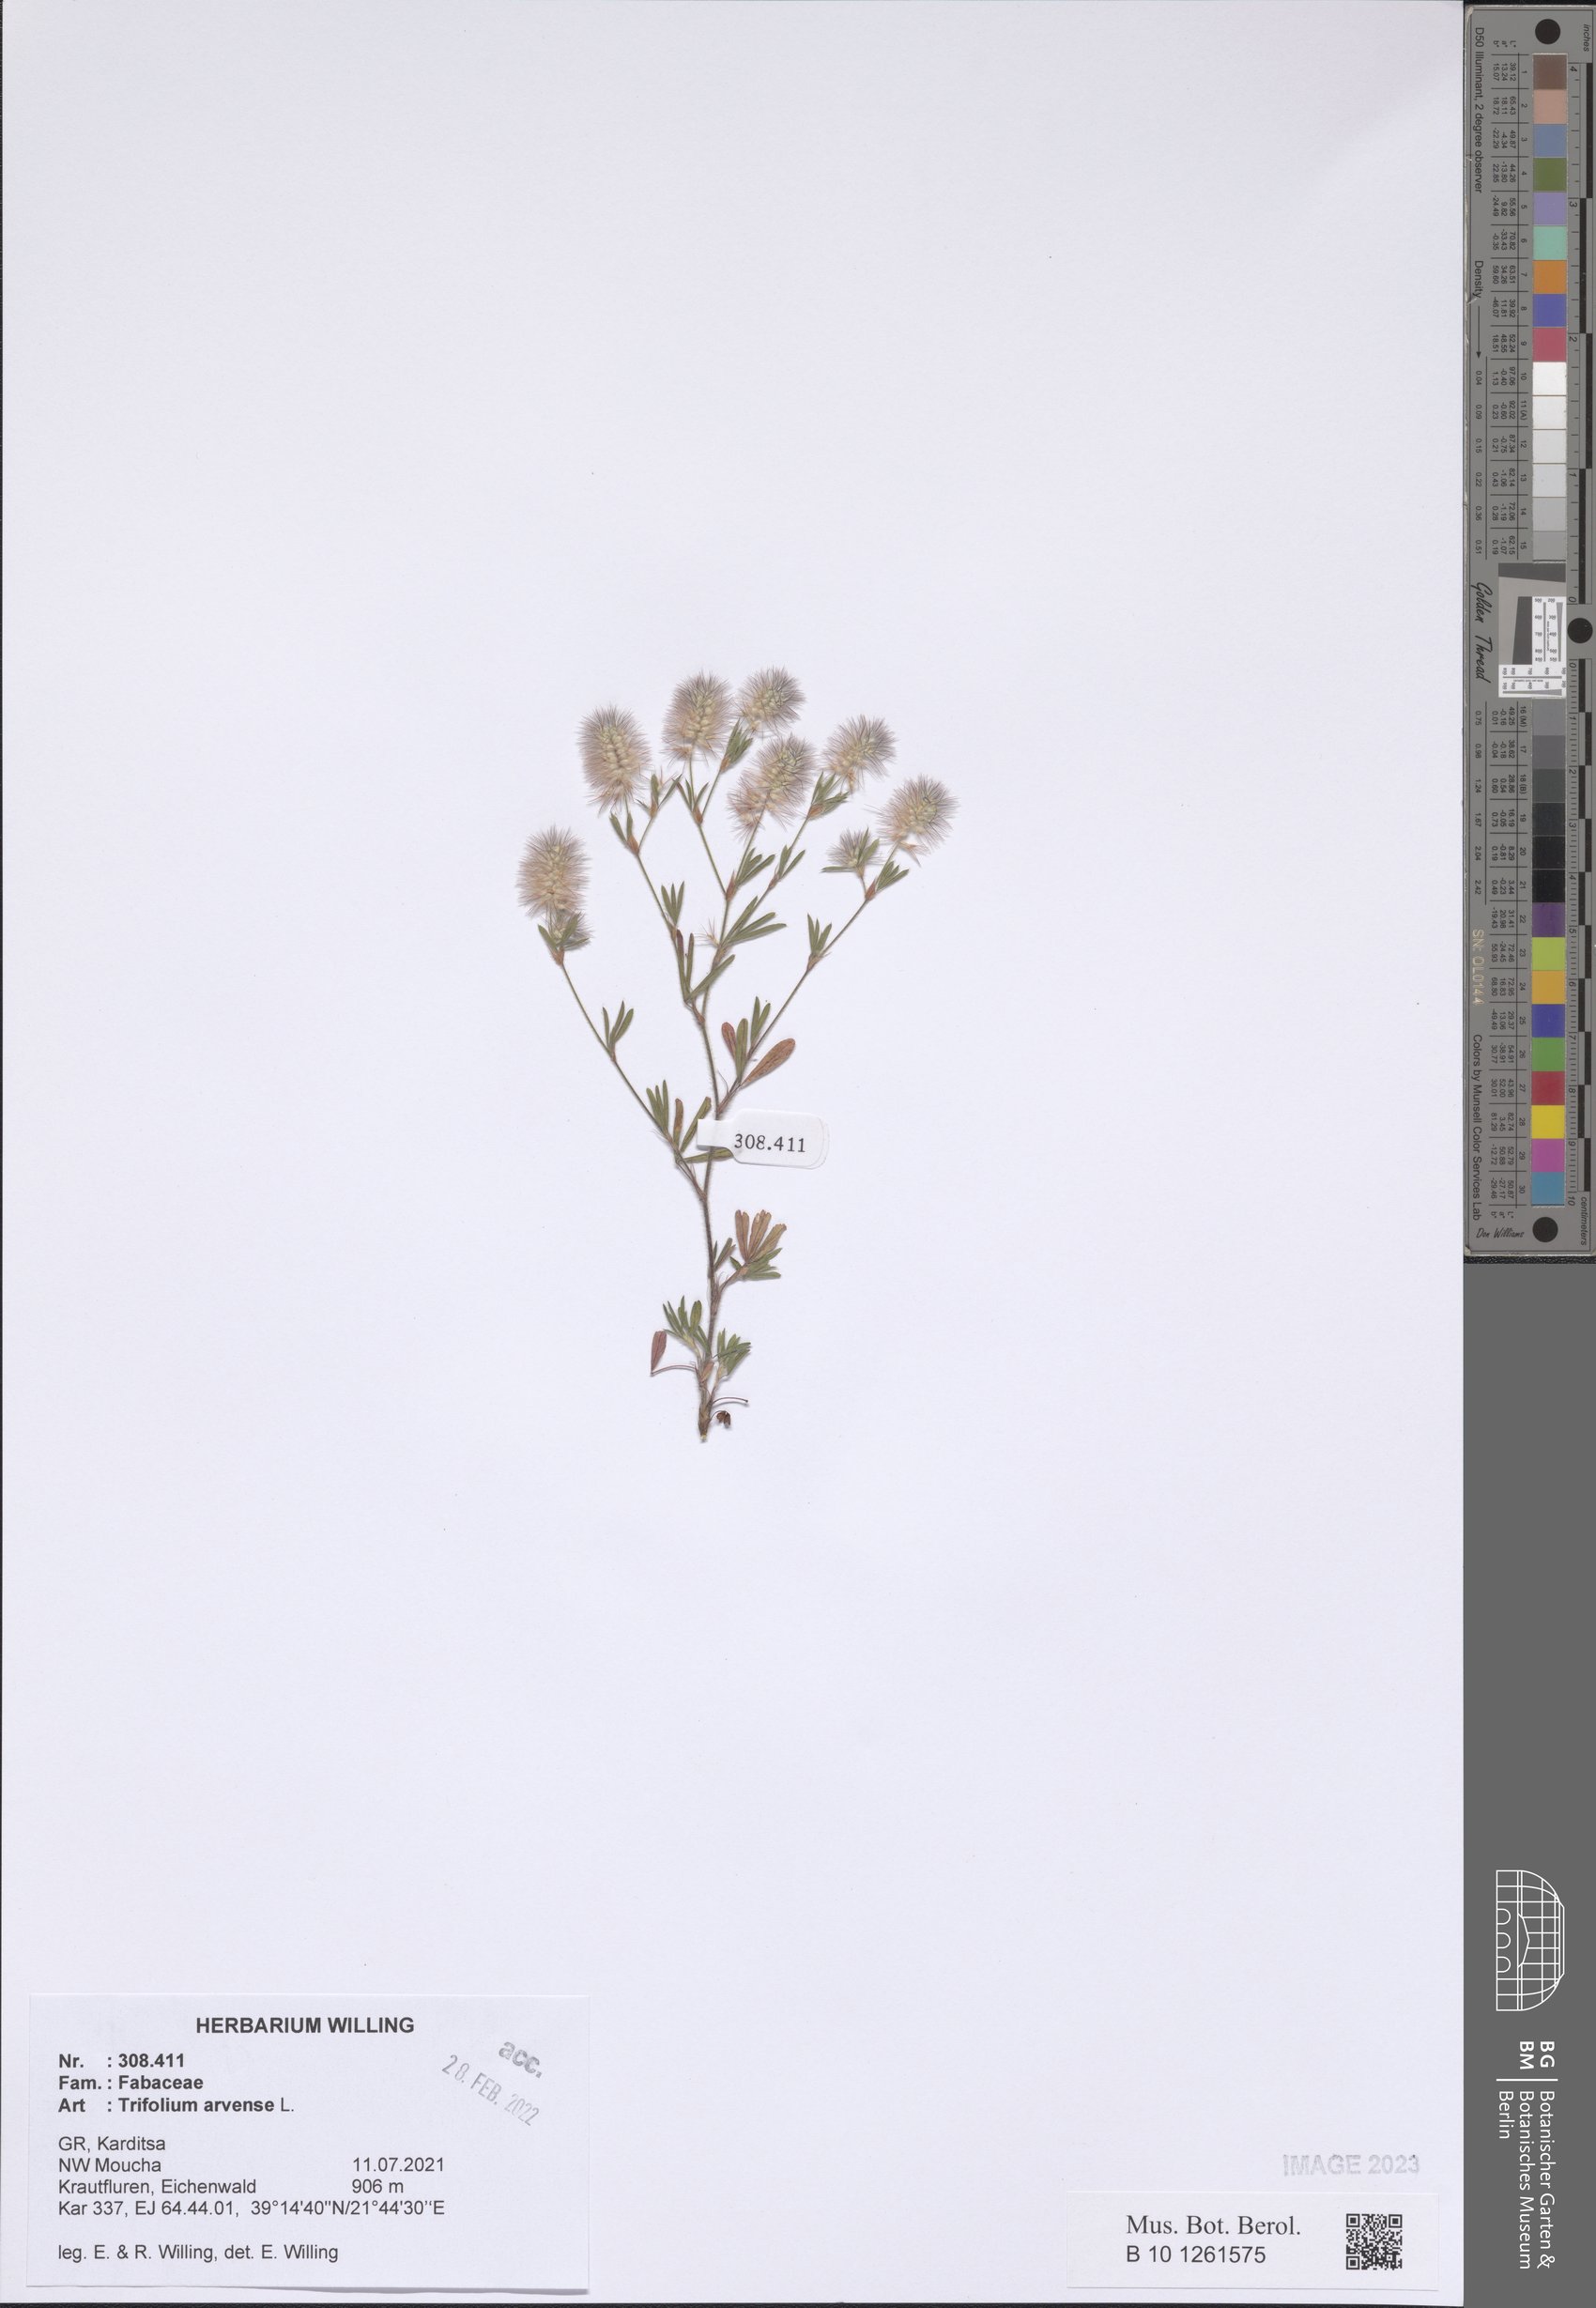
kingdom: Plantae
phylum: Tracheophyta
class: Magnoliopsida
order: Fabales
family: Fabaceae
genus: Trifolium
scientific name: Trifolium arvense
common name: Hare's-foot clover
